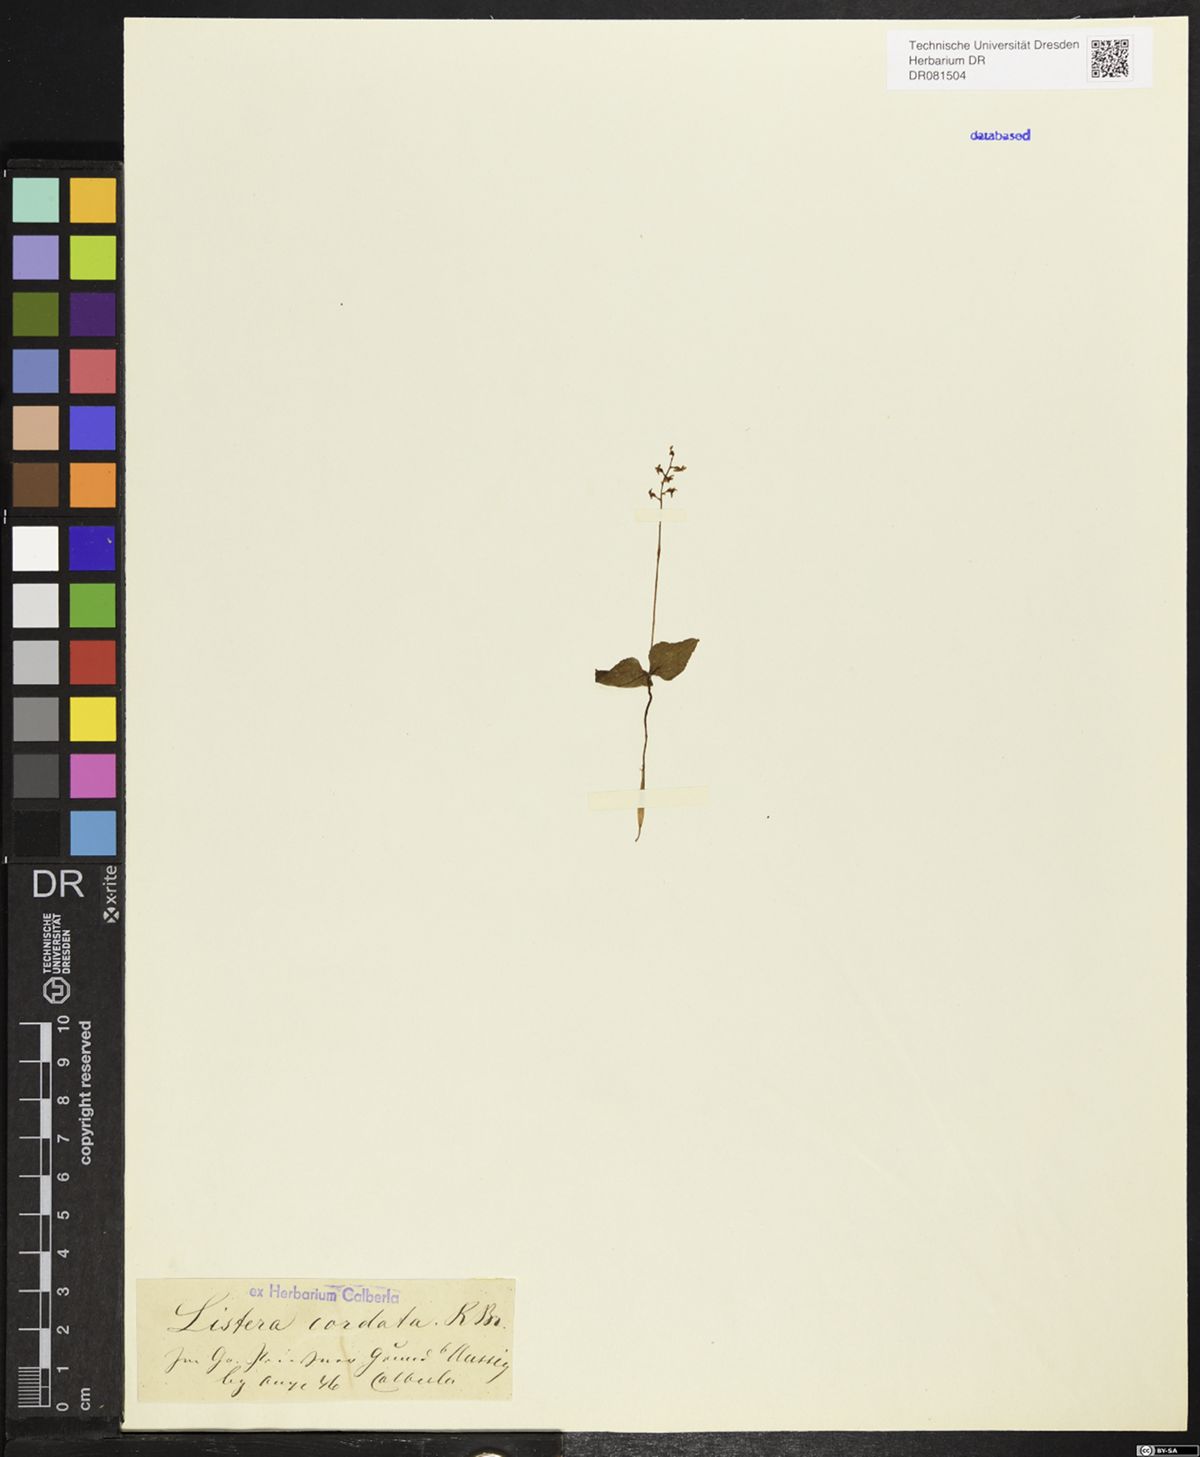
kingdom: Plantae
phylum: Tracheophyta
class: Liliopsida
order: Asparagales
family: Orchidaceae
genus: Neottia
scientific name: Neottia cordata
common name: Lesser twayblade
